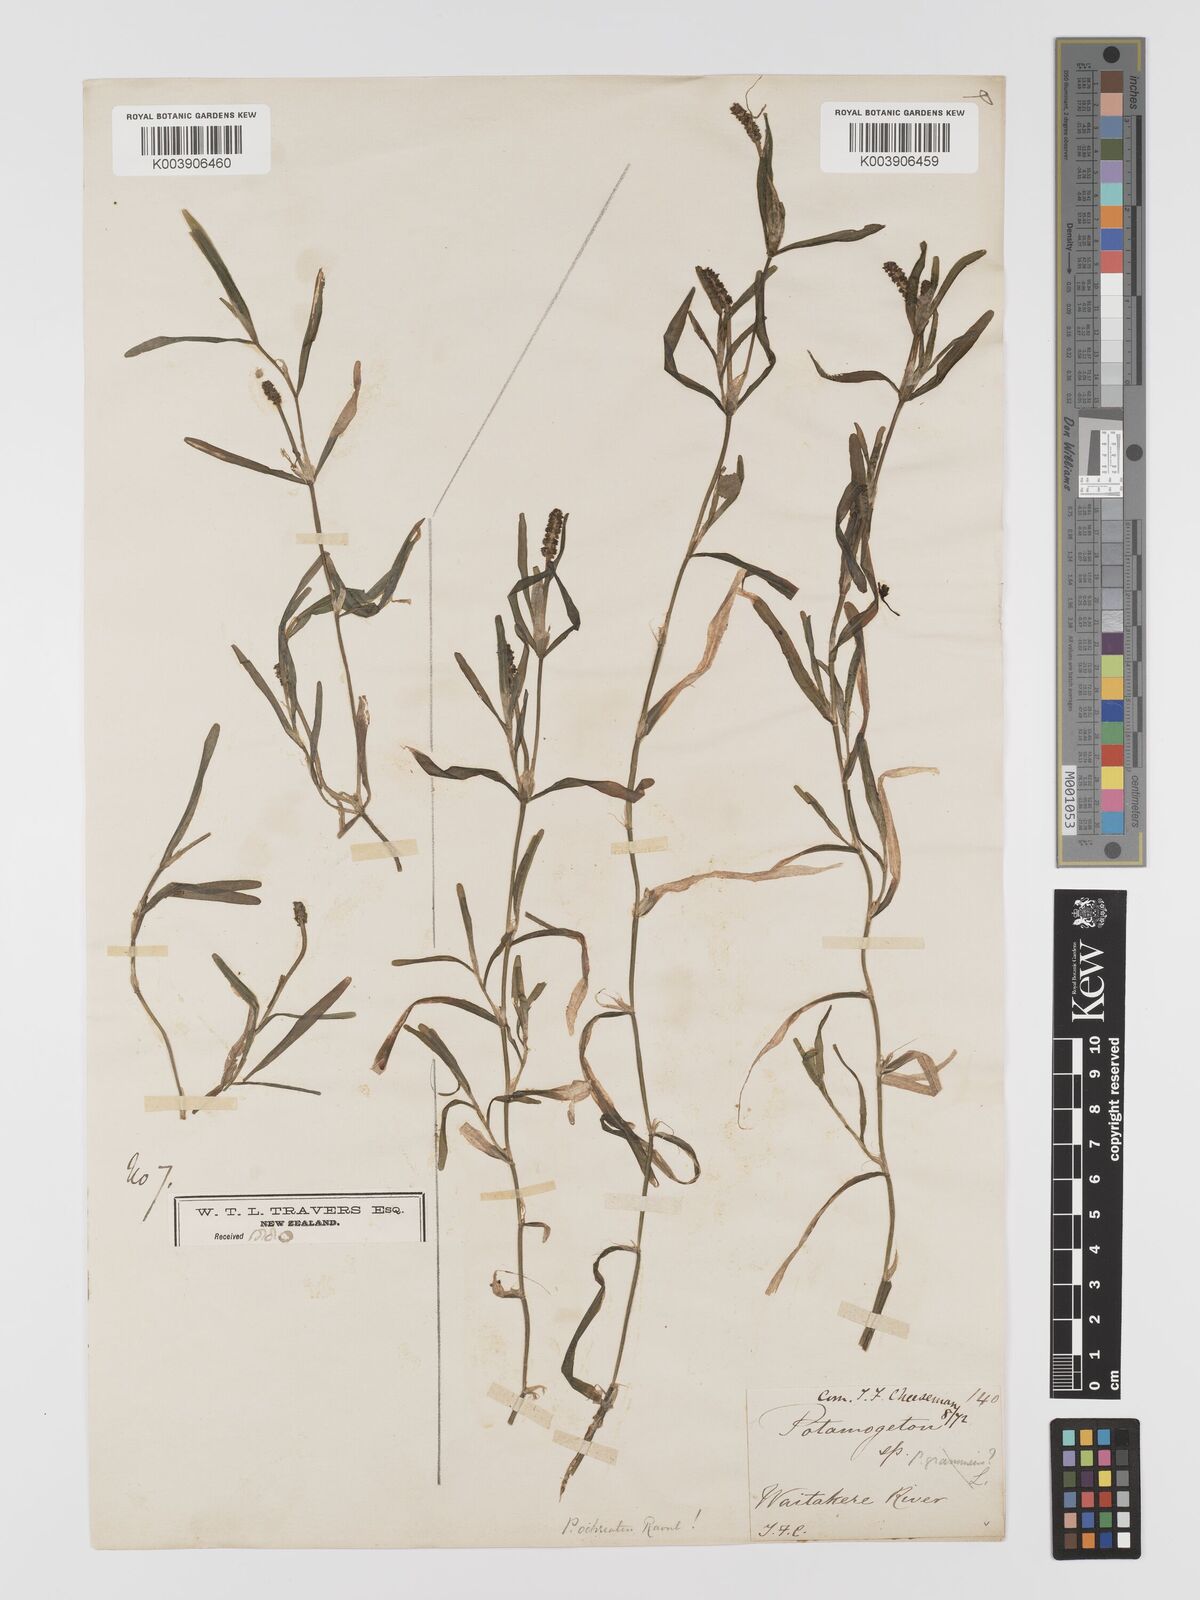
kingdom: Plantae
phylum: Tracheophyta
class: Liliopsida
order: Alismatales
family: Potamogetonaceae
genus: Potamogeton
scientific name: Potamogeton ochreatus
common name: Blunt pondweed
